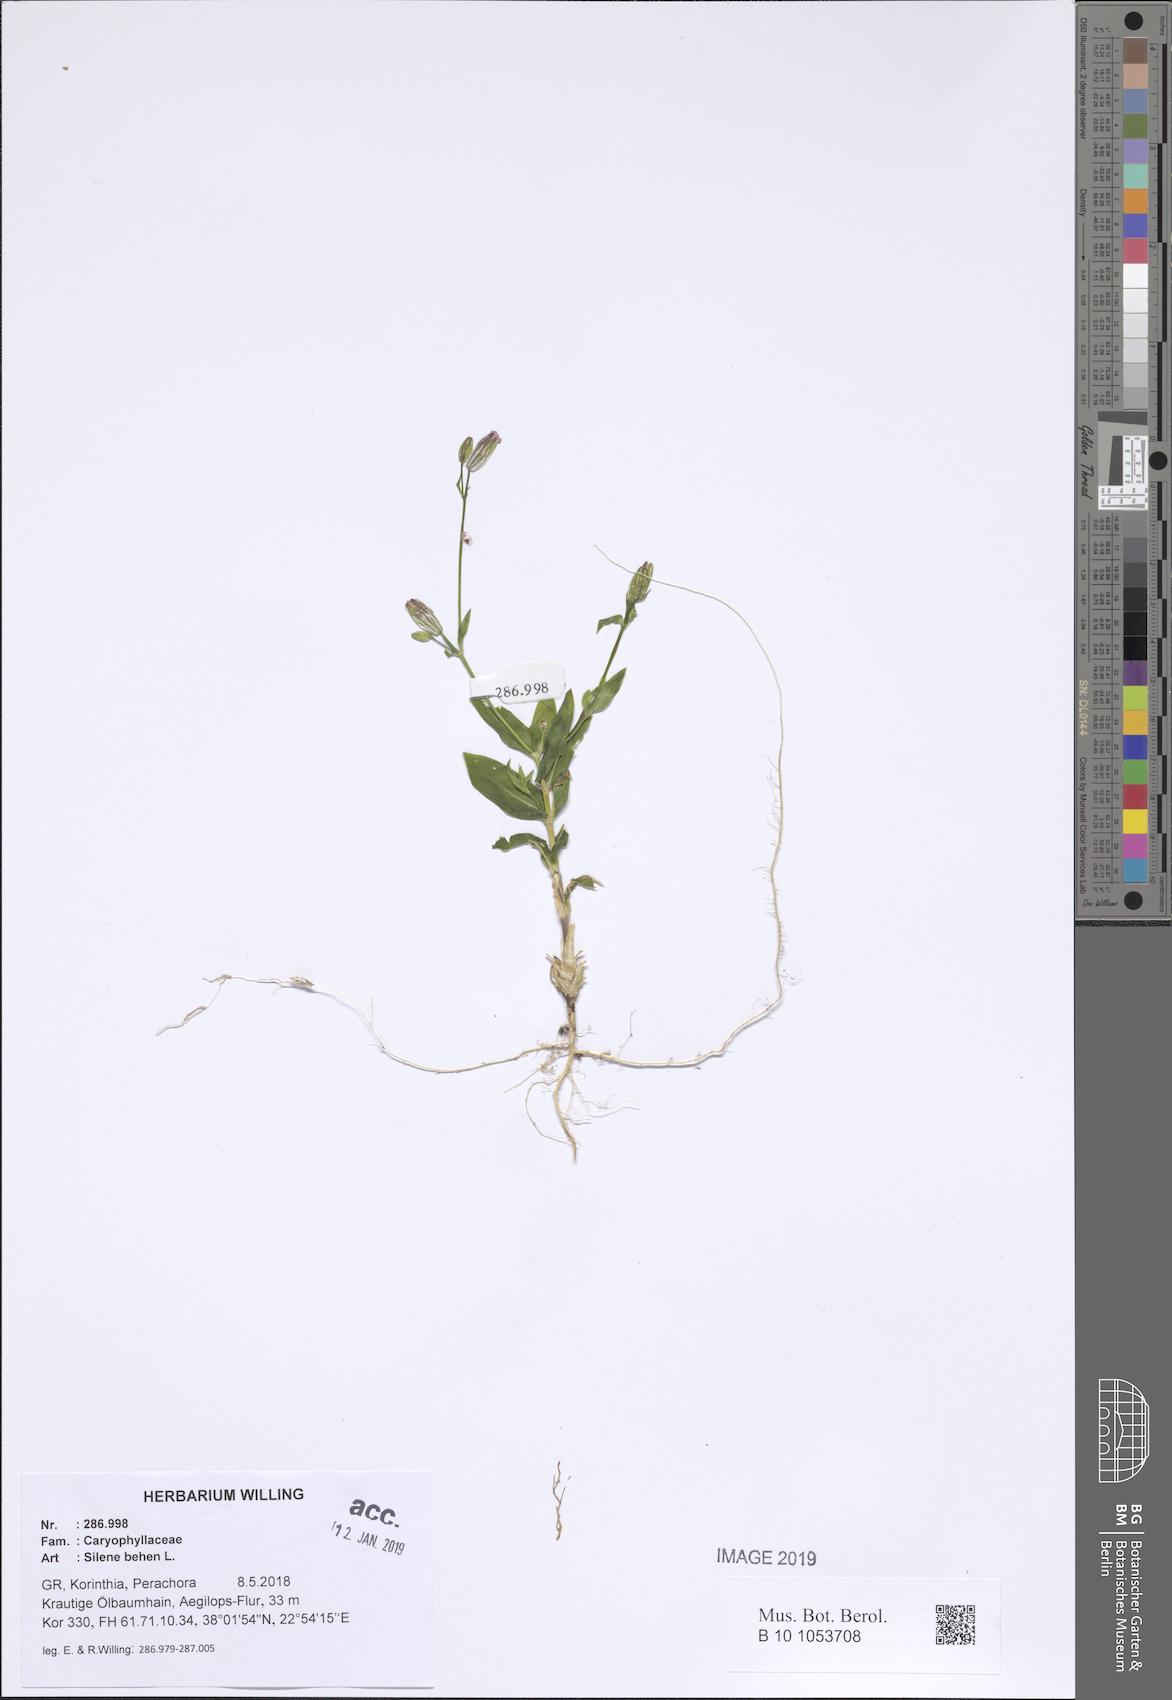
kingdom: Plantae
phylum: Tracheophyta
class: Magnoliopsida
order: Caryophyllales
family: Caryophyllaceae
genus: Silene
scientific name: Silene behen
